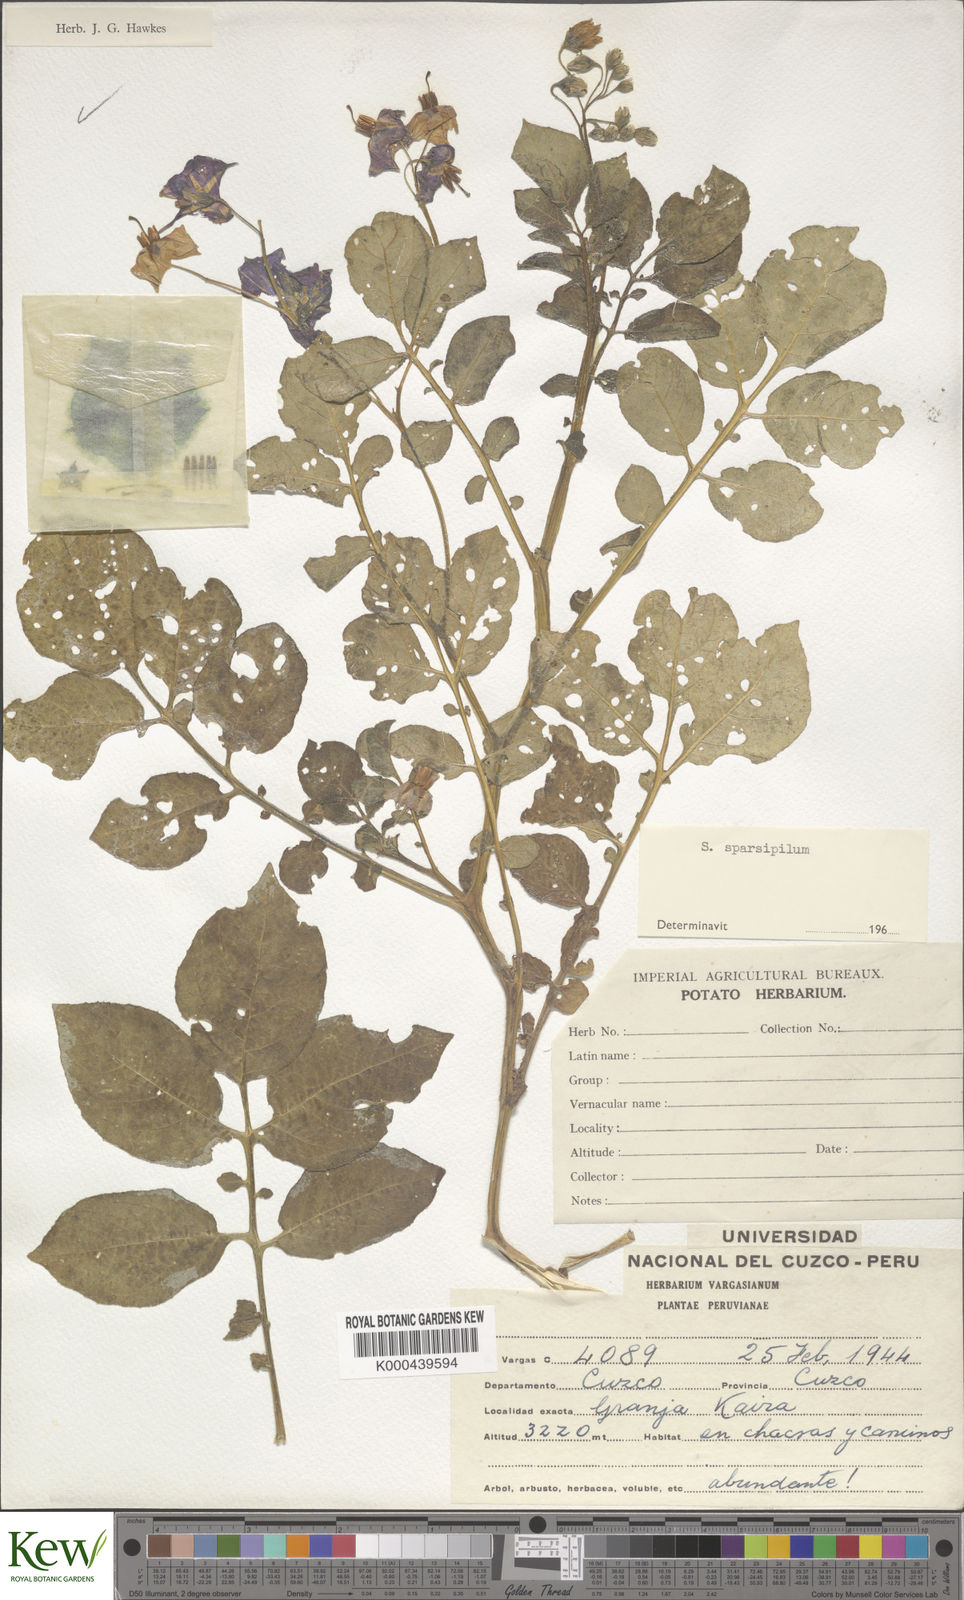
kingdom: Plantae
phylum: Tracheophyta
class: Magnoliopsida
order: Solanales
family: Solanaceae
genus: Solanum
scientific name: Solanum brevicaule
